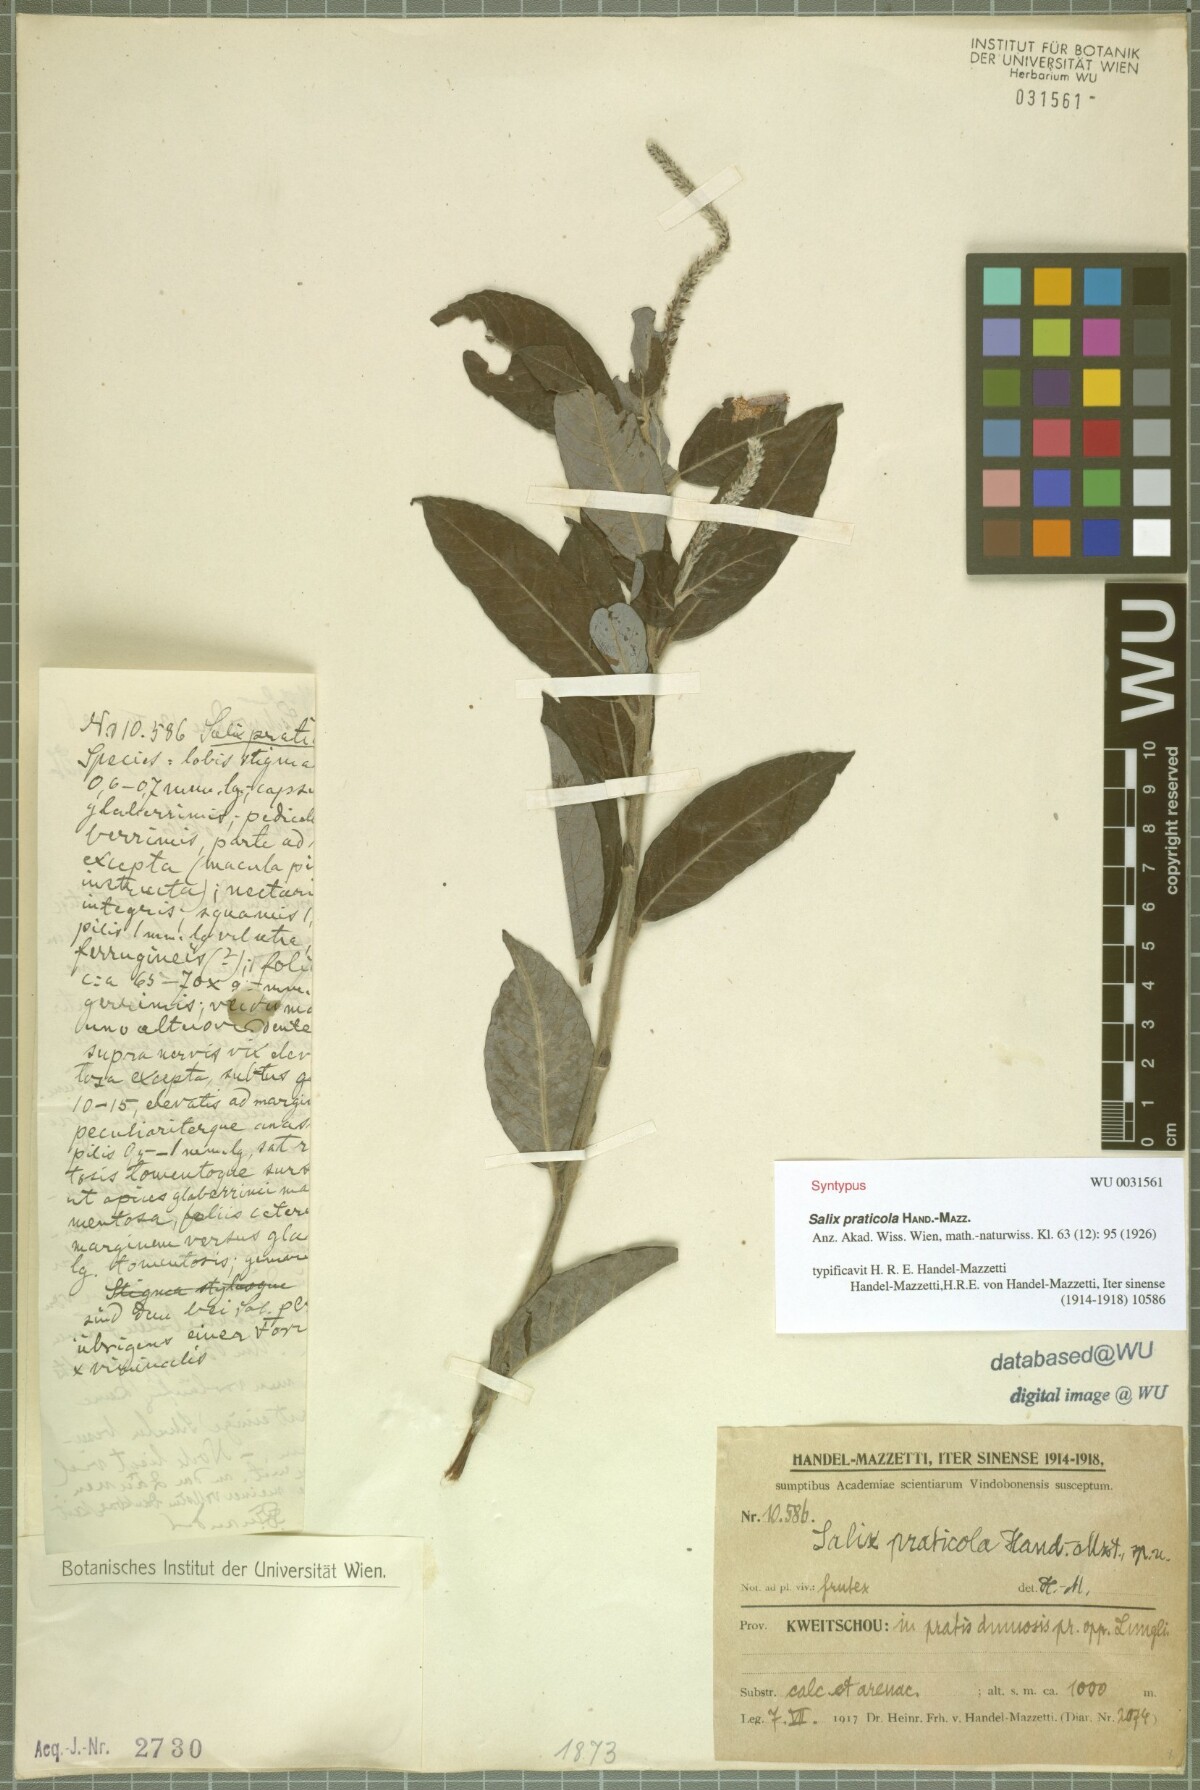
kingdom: Plantae
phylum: Tracheophyta
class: Magnoliopsida
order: Malpighiales
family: Salicaceae
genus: Salix
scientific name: Salix praticola
